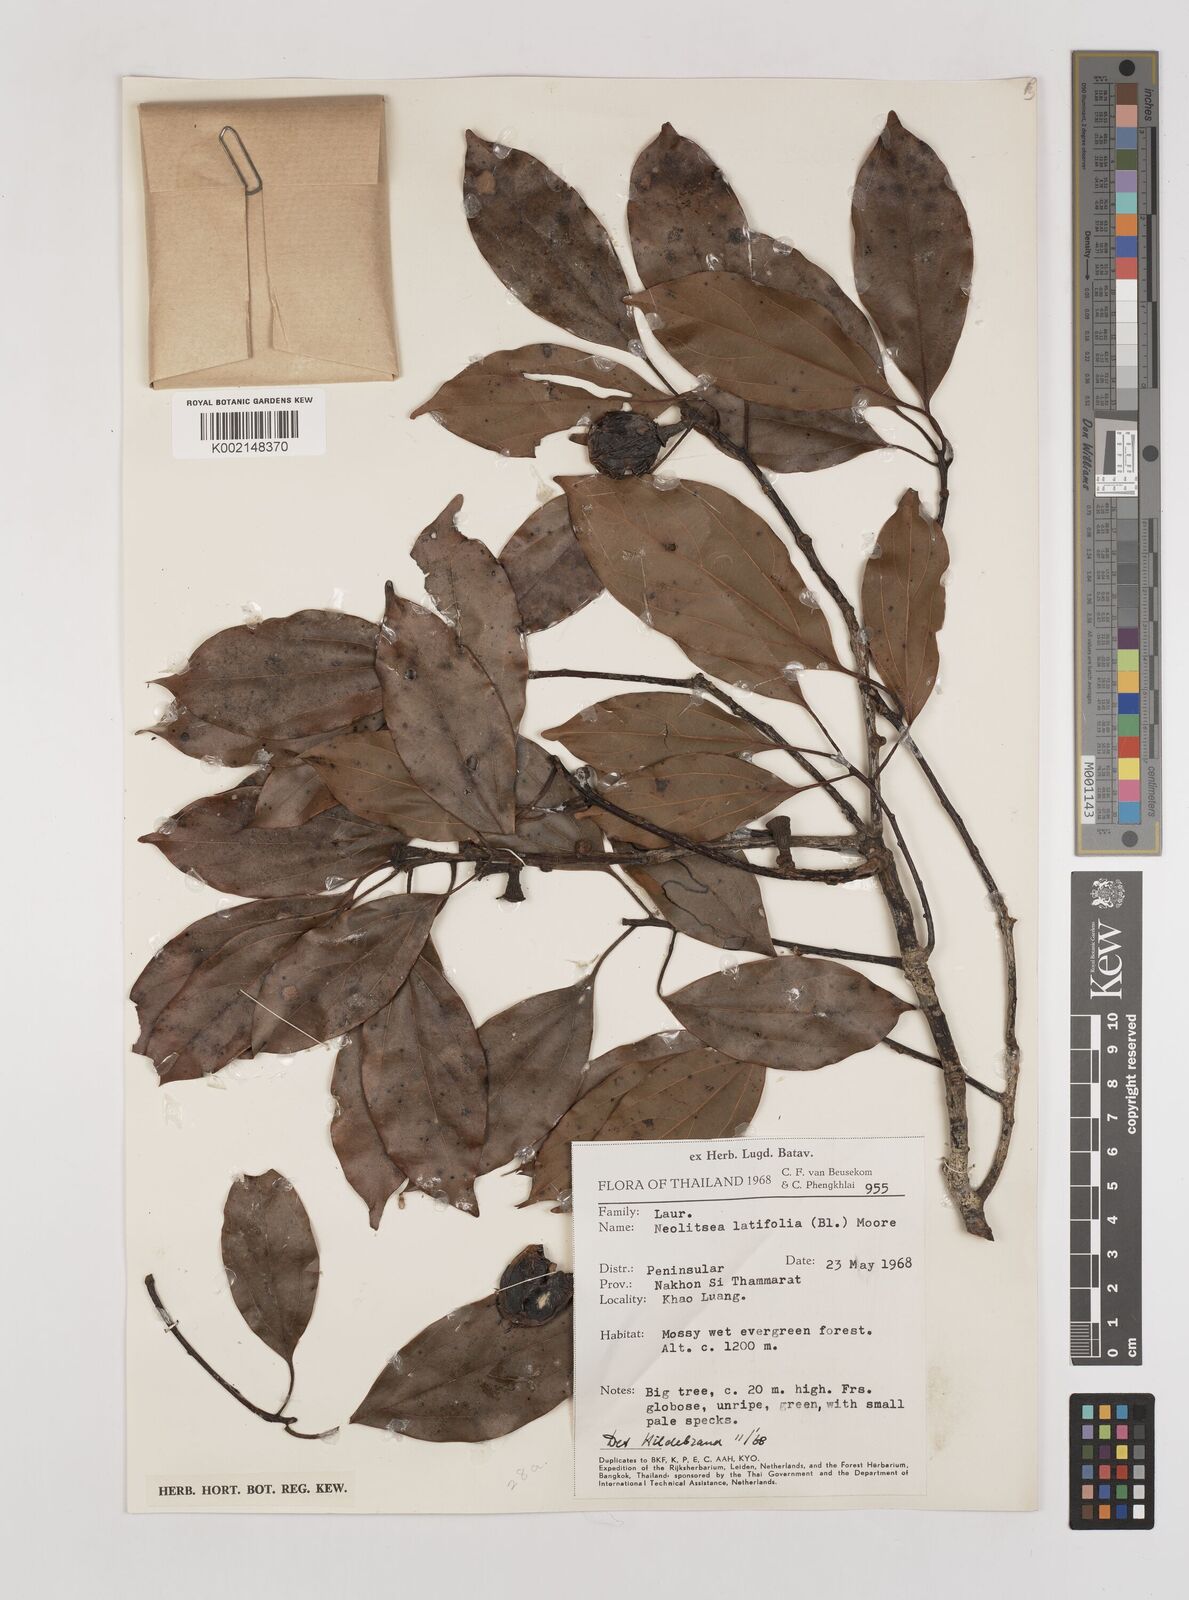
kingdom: Plantae
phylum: Tracheophyta
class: Magnoliopsida
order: Laurales
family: Lauraceae
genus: Neolitsea
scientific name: Neolitsea latifolia
